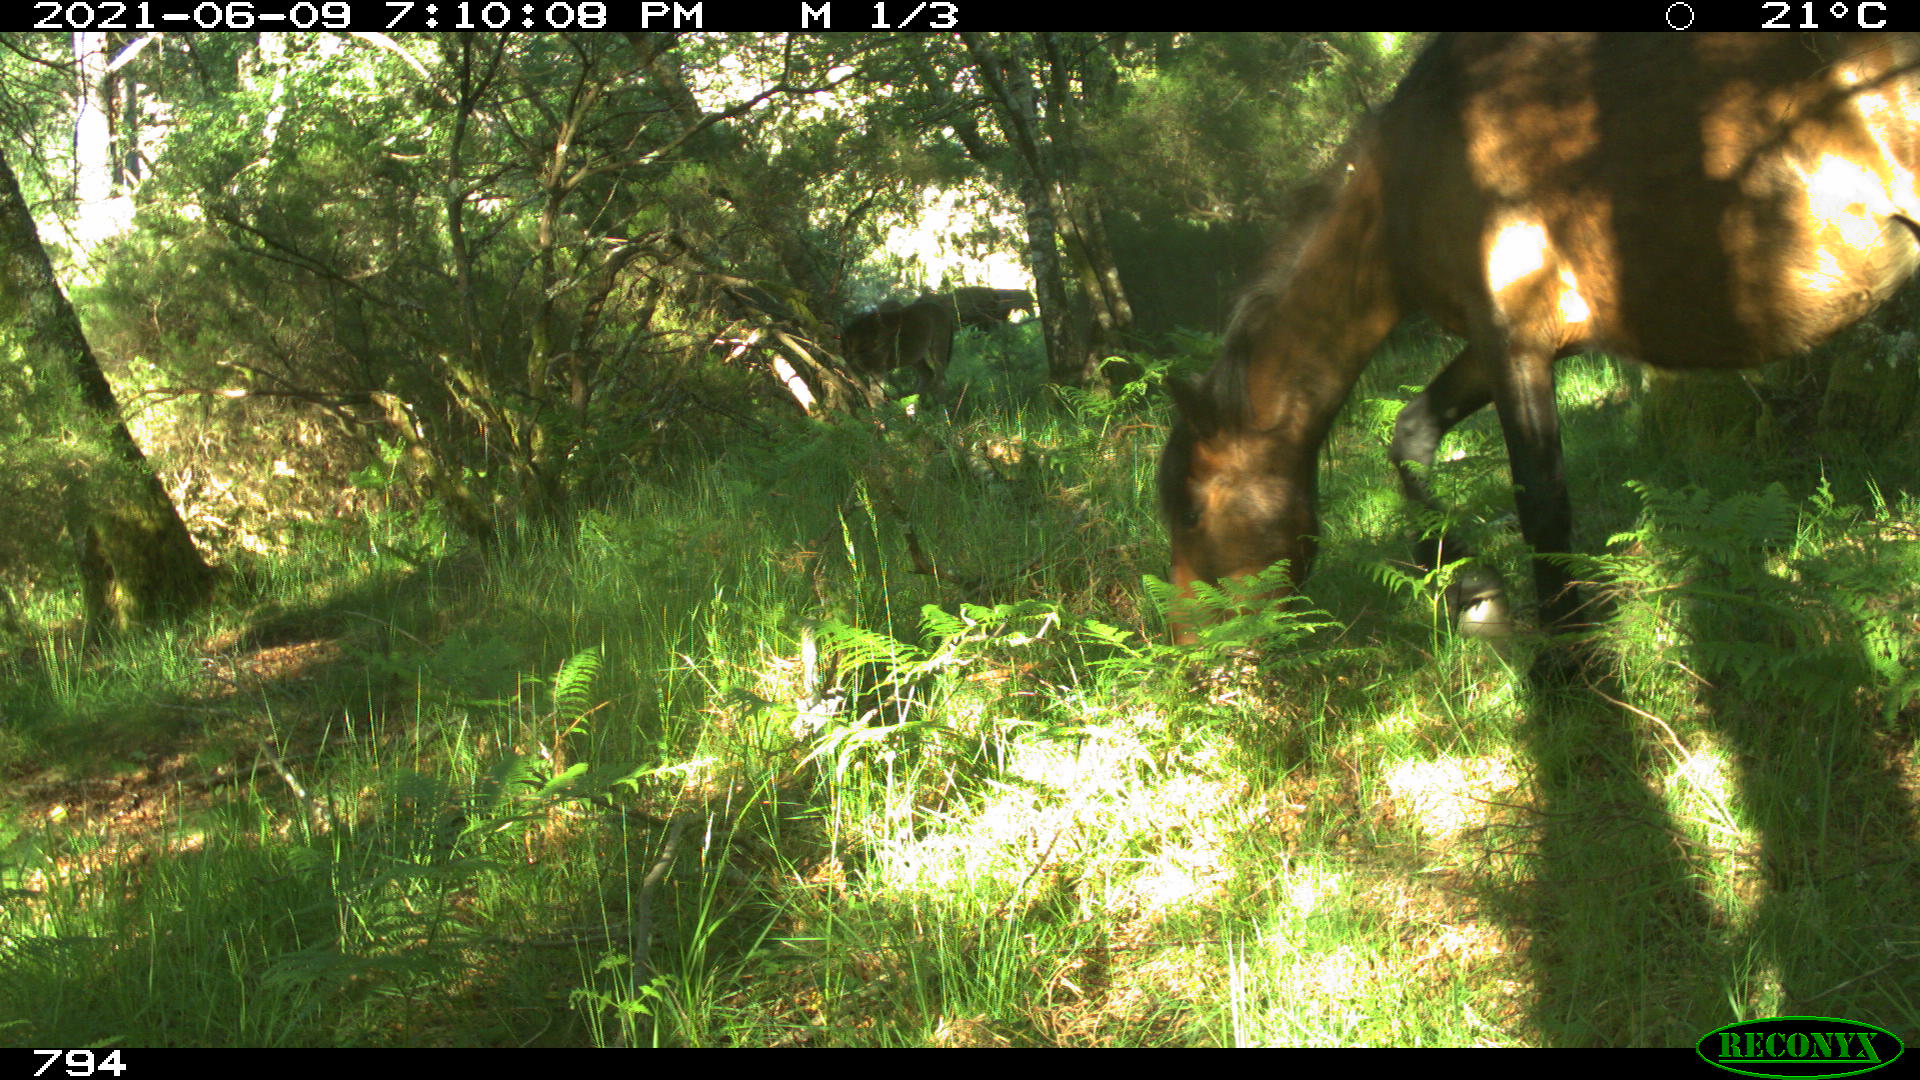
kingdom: Animalia
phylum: Chordata
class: Mammalia
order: Perissodactyla
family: Equidae
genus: Equus
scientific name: Equus caballus
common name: Horse
